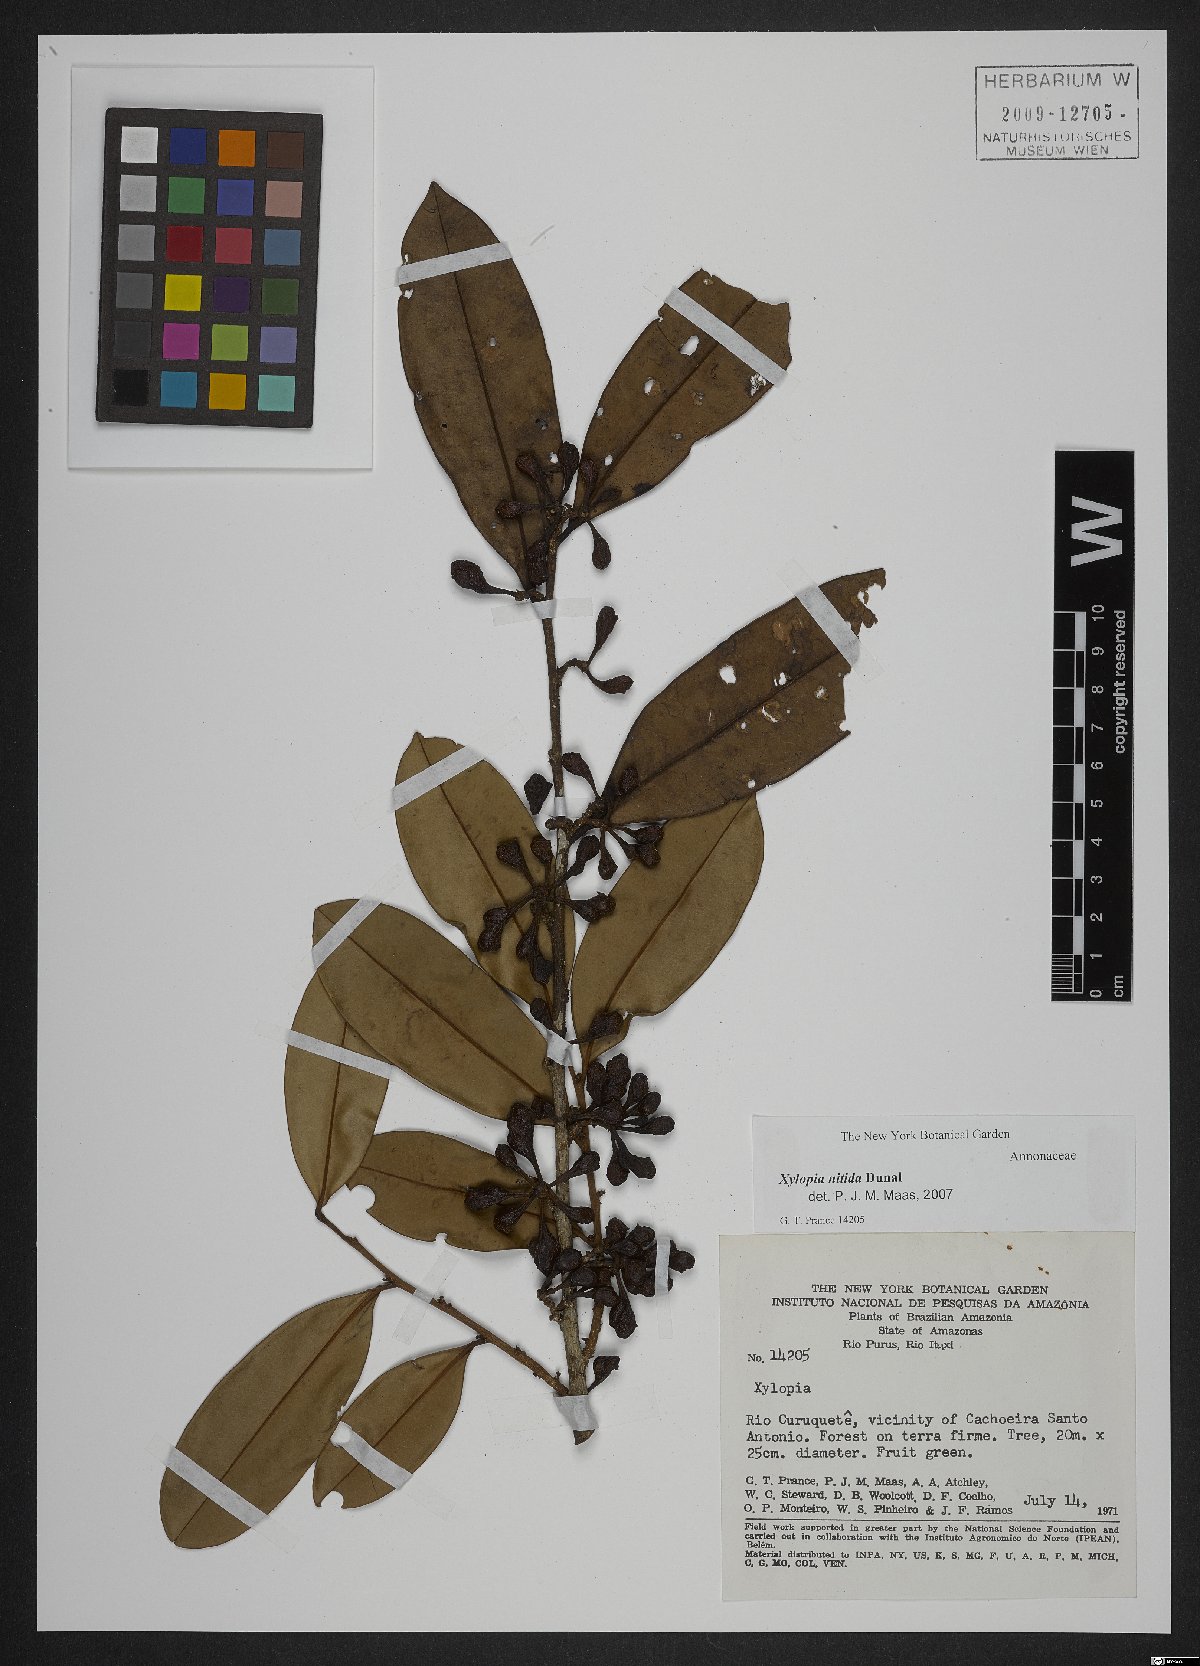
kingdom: Plantae
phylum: Tracheophyta
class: Magnoliopsida
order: Magnoliales
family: Annonaceae
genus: Xylopia
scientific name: Xylopia nitida
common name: White kuyama
